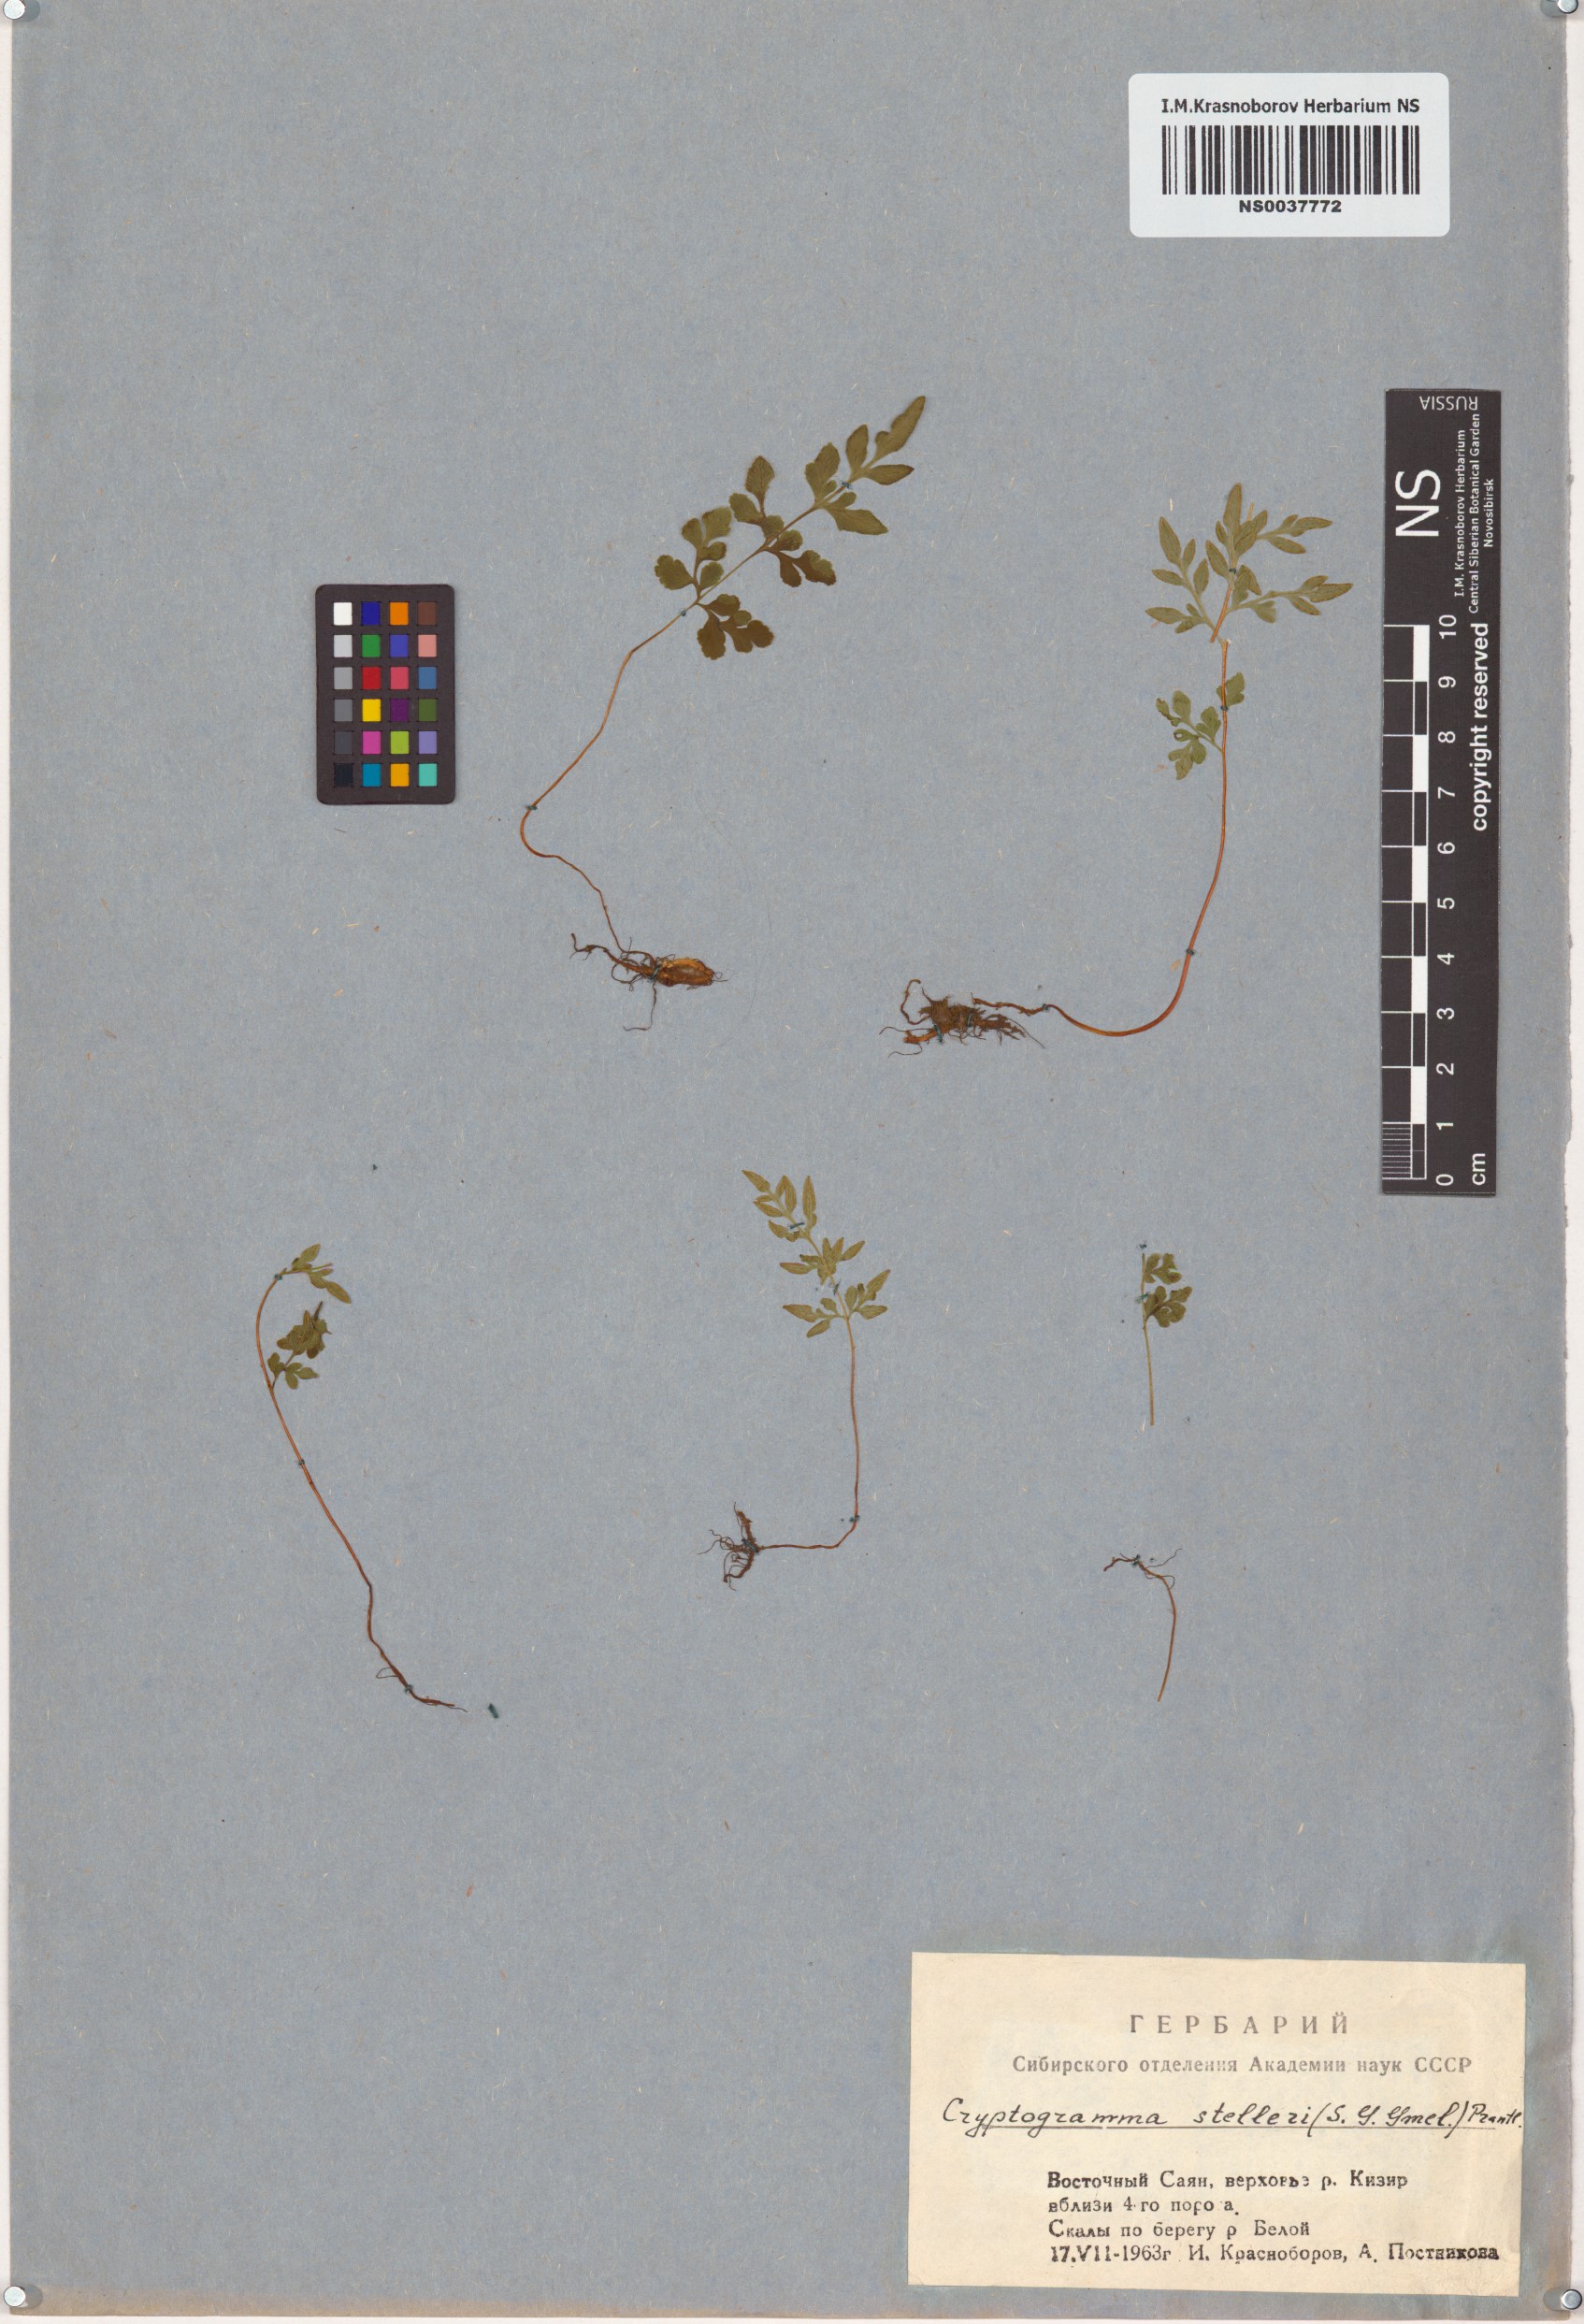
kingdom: Plantae
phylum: Tracheophyta
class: Polypodiopsida
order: Polypodiales
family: Pteridaceae
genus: Cryptogramma
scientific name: Cryptogramma stelleri
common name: Cliff-brake
